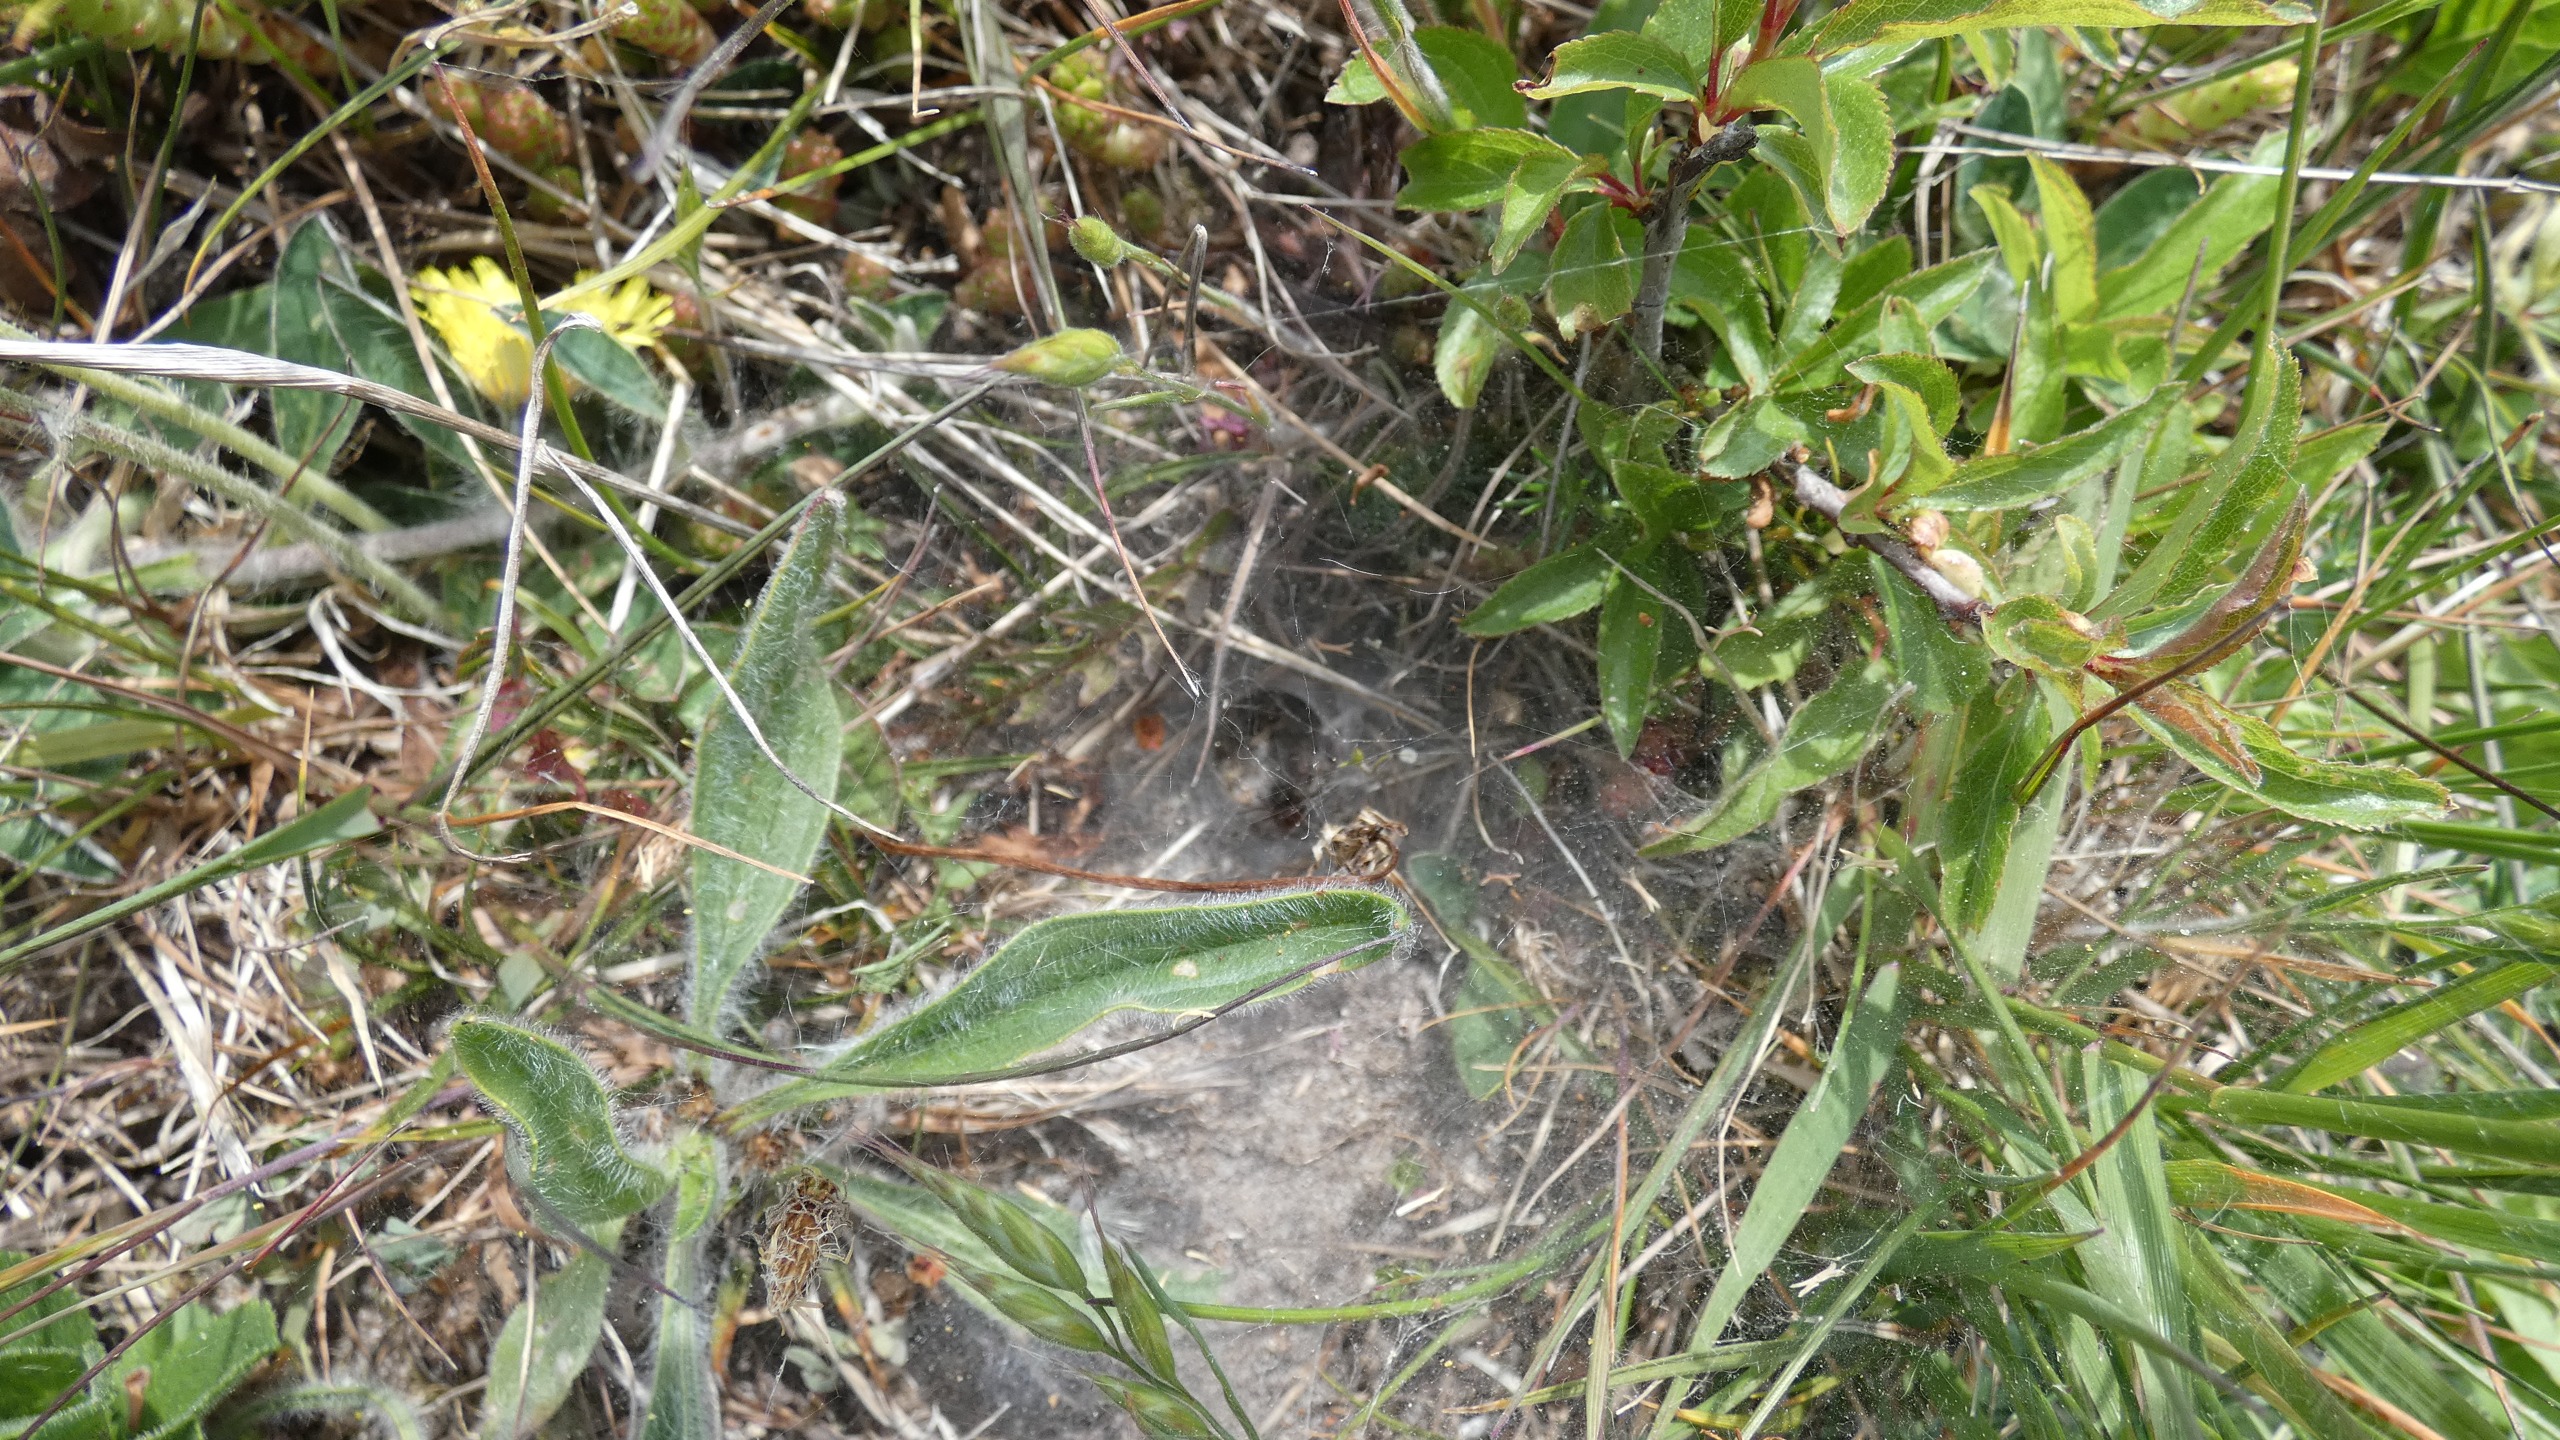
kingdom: Animalia
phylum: Arthropoda
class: Arachnida
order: Araneae
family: Agelenidae
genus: Agelena
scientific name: Agelena labyrinthica
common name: Labyrintedderkop
